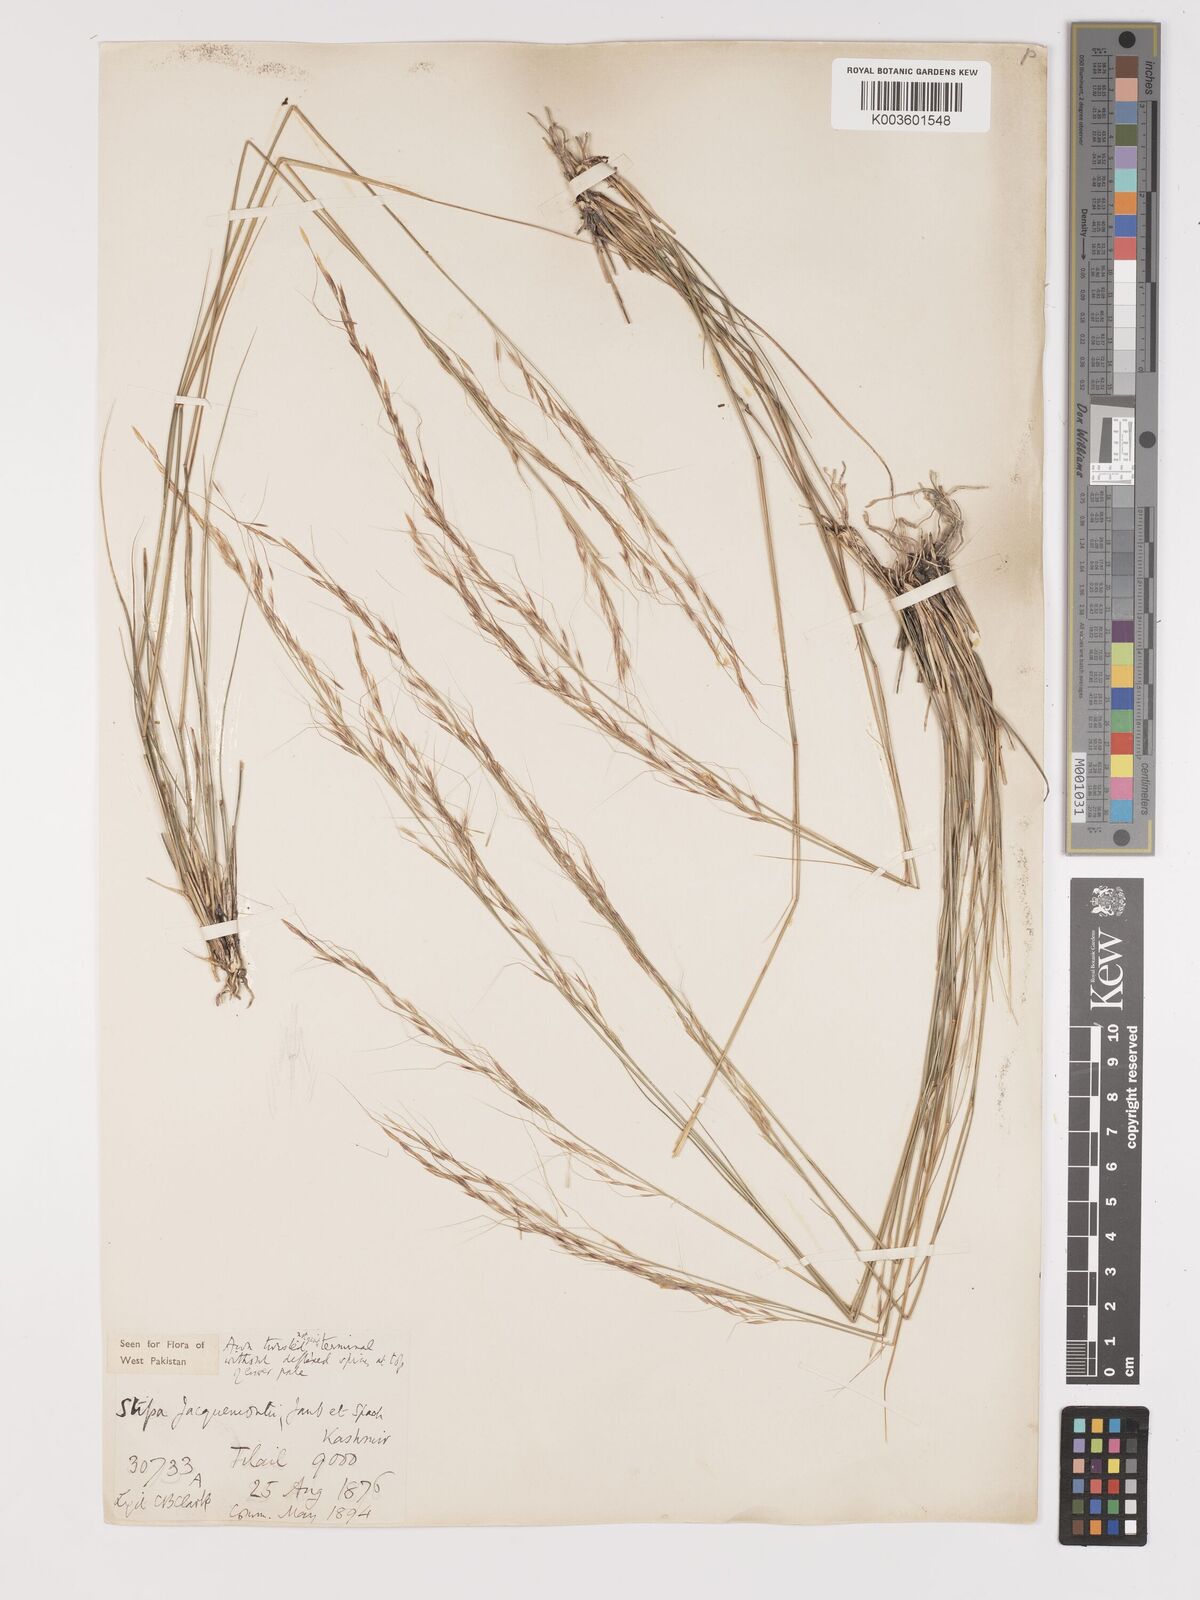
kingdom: Plantae
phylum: Tracheophyta
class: Liliopsida
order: Poales
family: Poaceae
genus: Achnatherum
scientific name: Achnatherum jacquemontii
